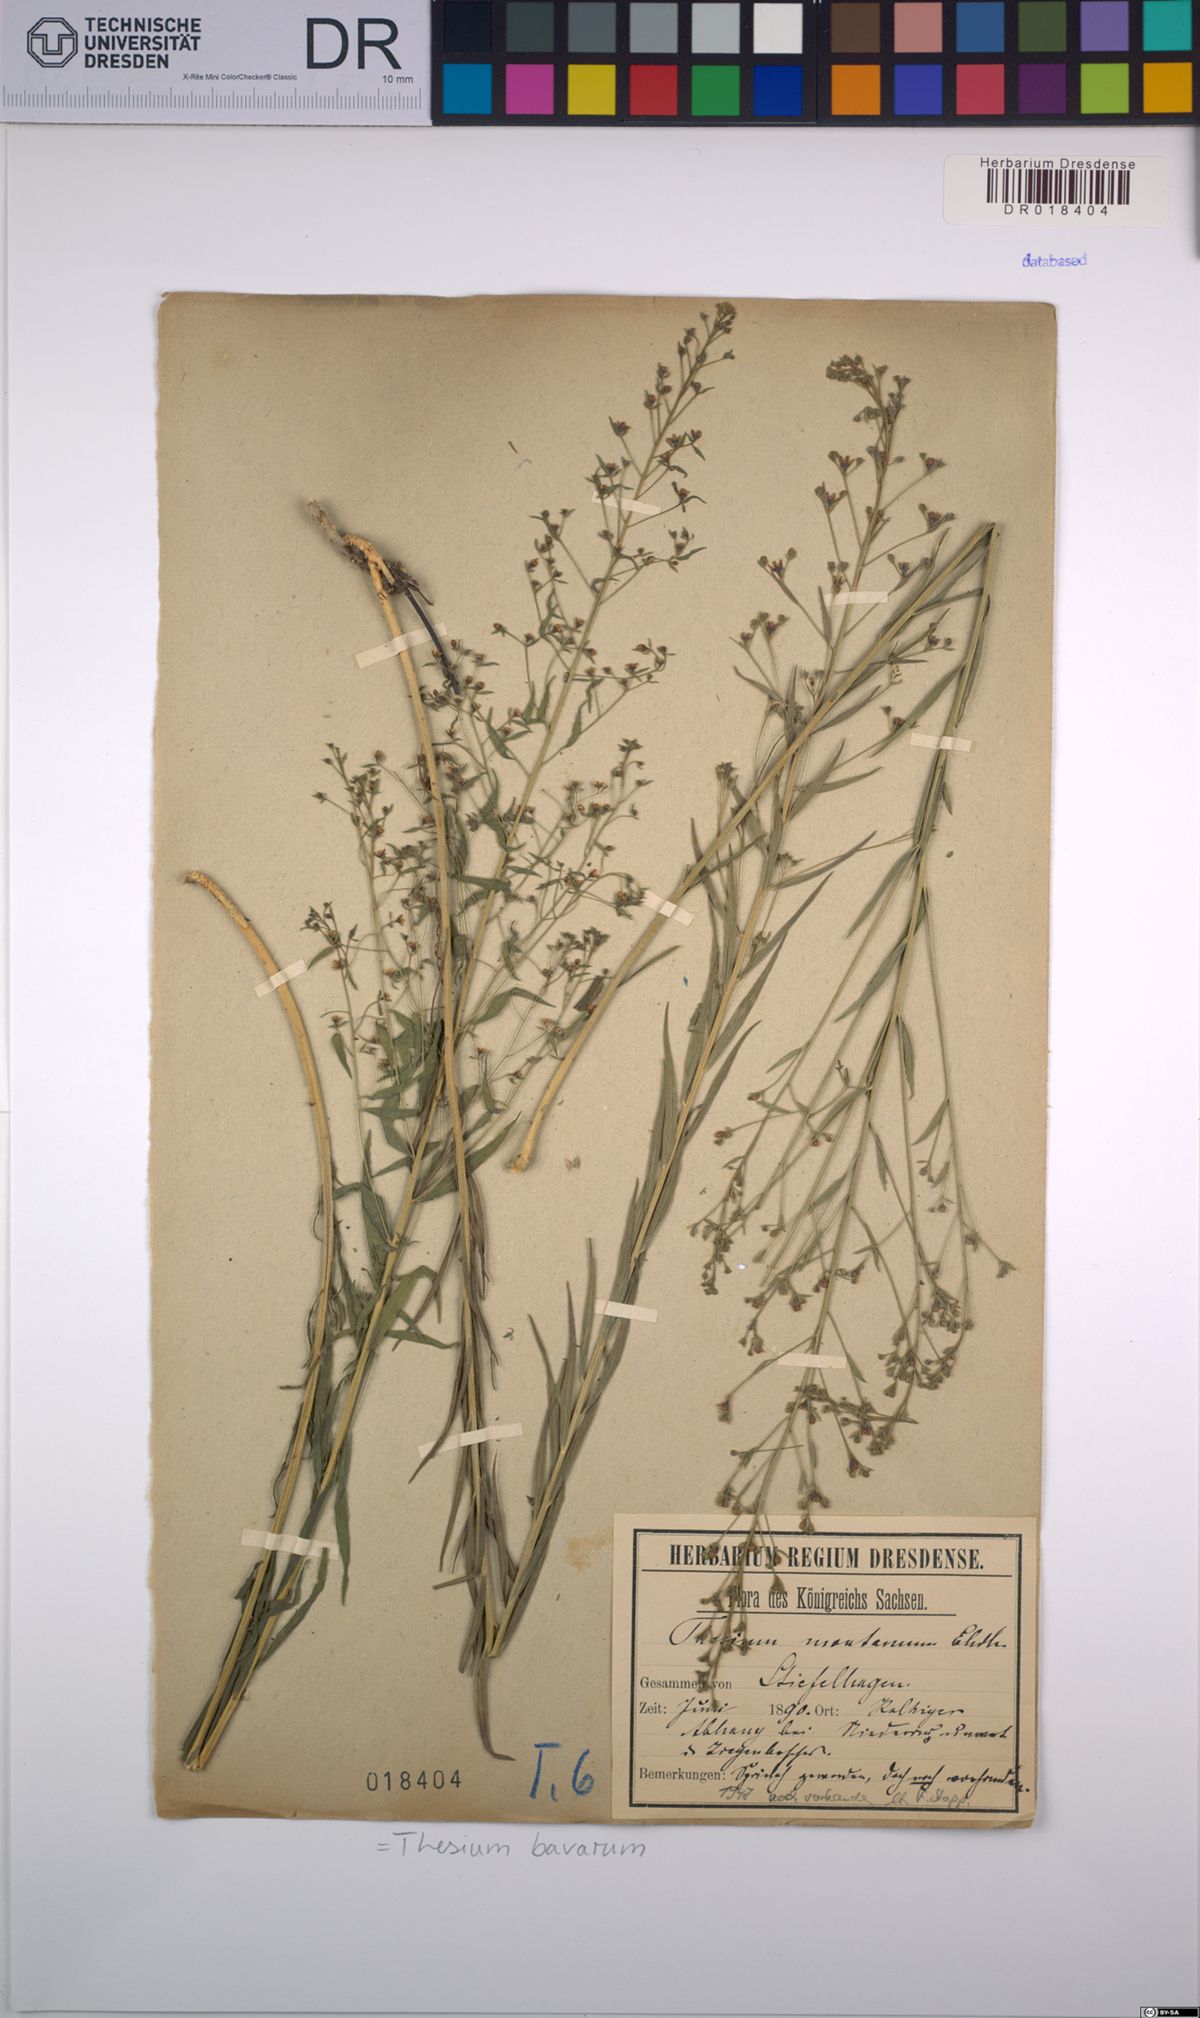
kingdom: Plantae
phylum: Tracheophyta
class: Magnoliopsida
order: Santalales
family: Thesiaceae
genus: Thesium
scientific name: Thesium bavarum
